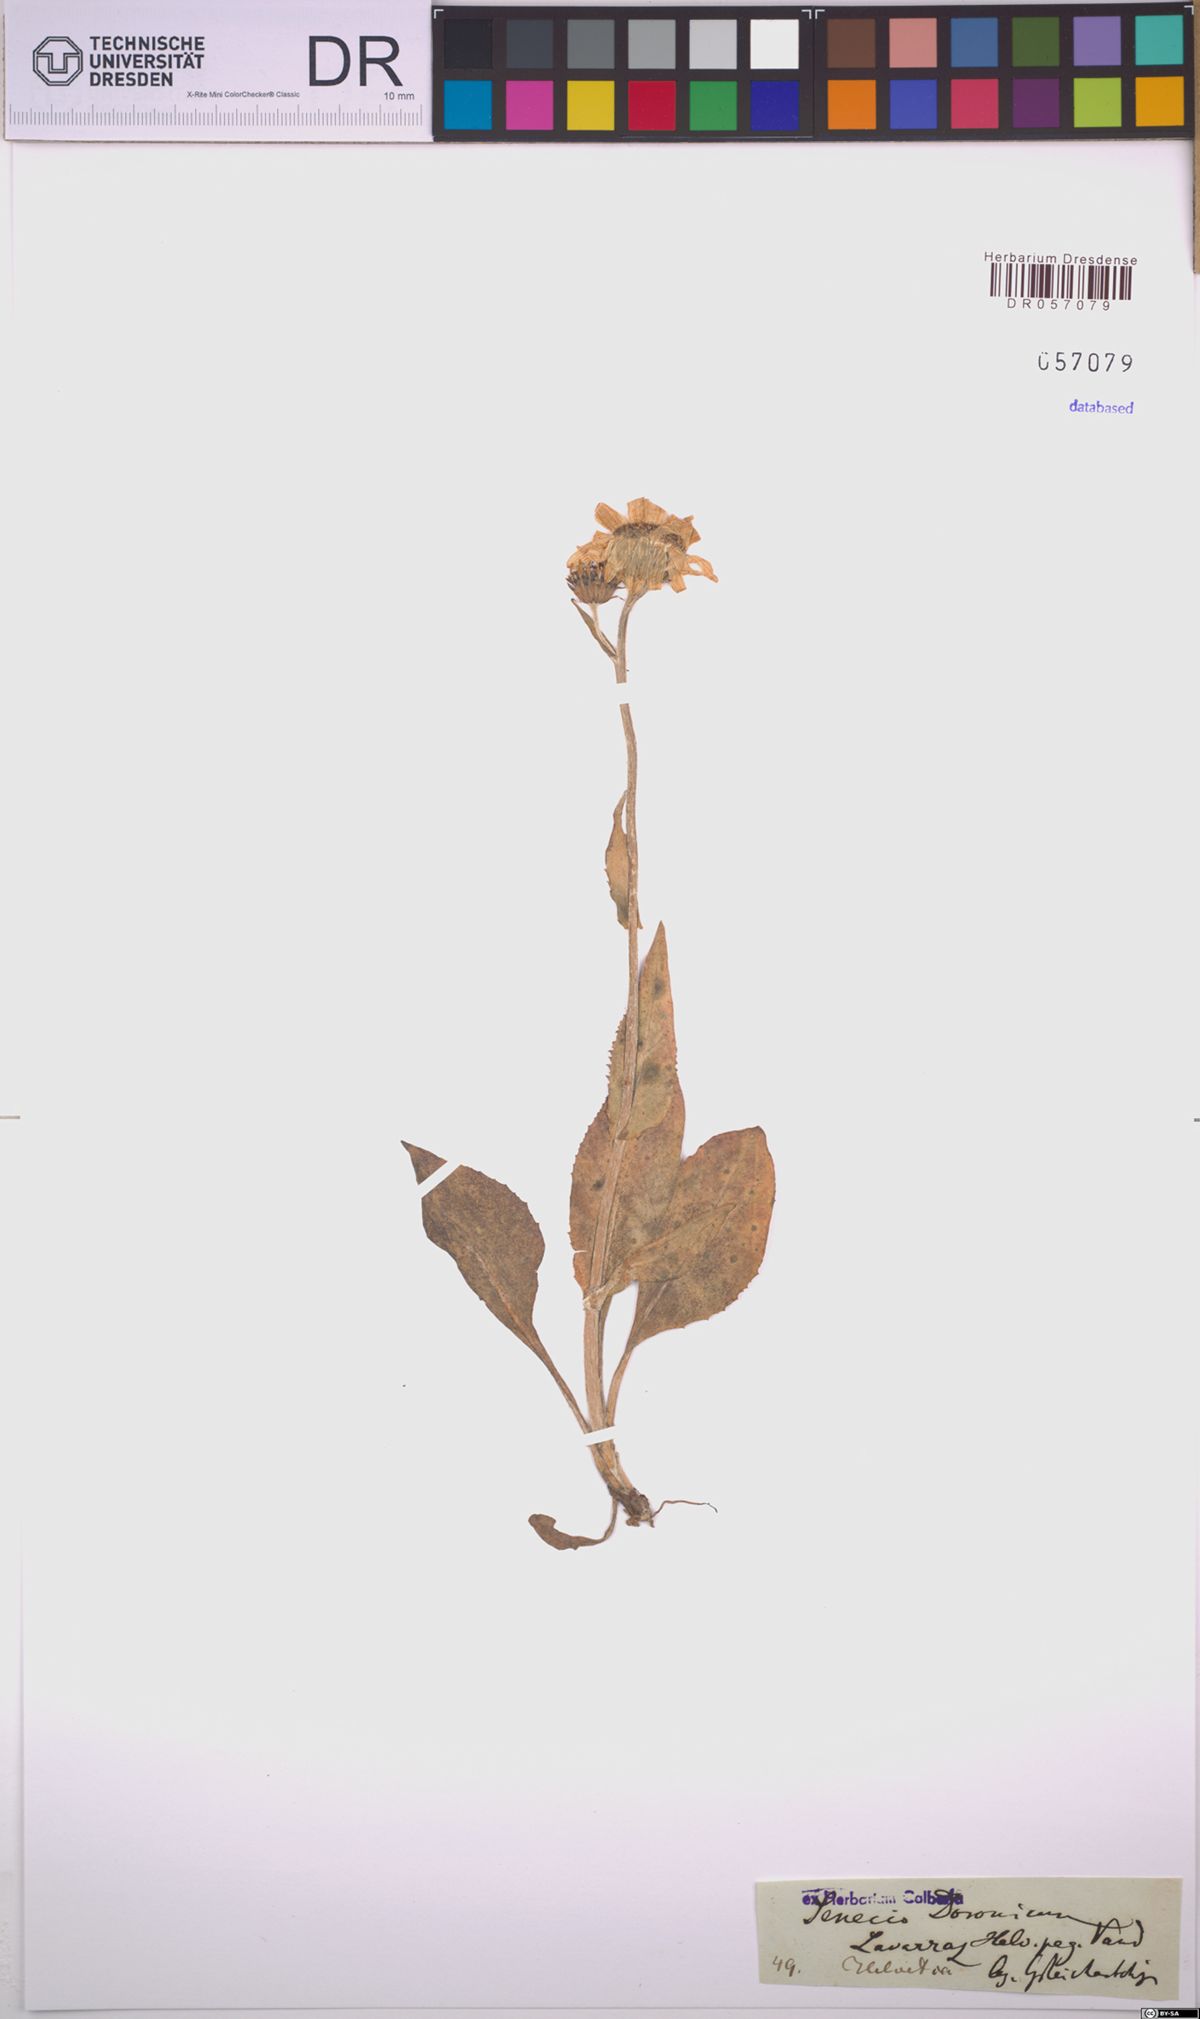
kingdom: Plantae
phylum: Tracheophyta
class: Magnoliopsida
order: Asterales
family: Asteraceae
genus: Senecio
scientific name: Senecio doronicum
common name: Chamois ragwort
